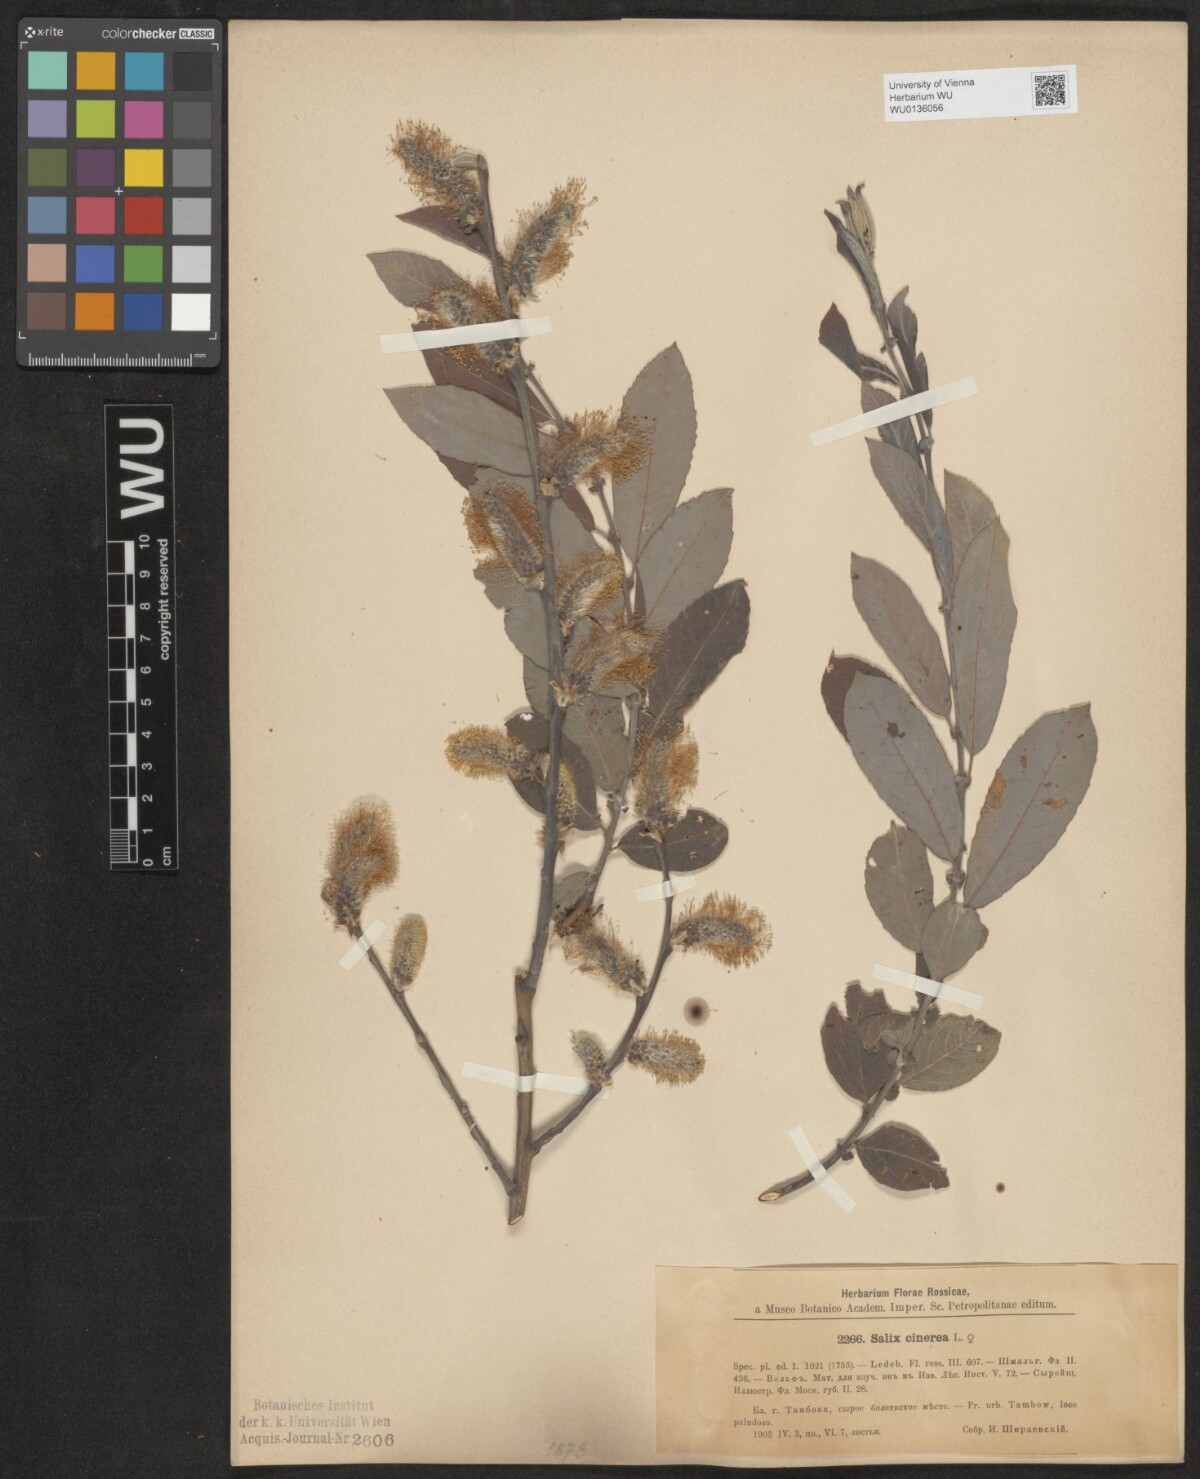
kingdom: Plantae
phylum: Tracheophyta
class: Magnoliopsida
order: Malpighiales
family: Salicaceae
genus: Salix
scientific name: Salix cinerea
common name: Common sallow
